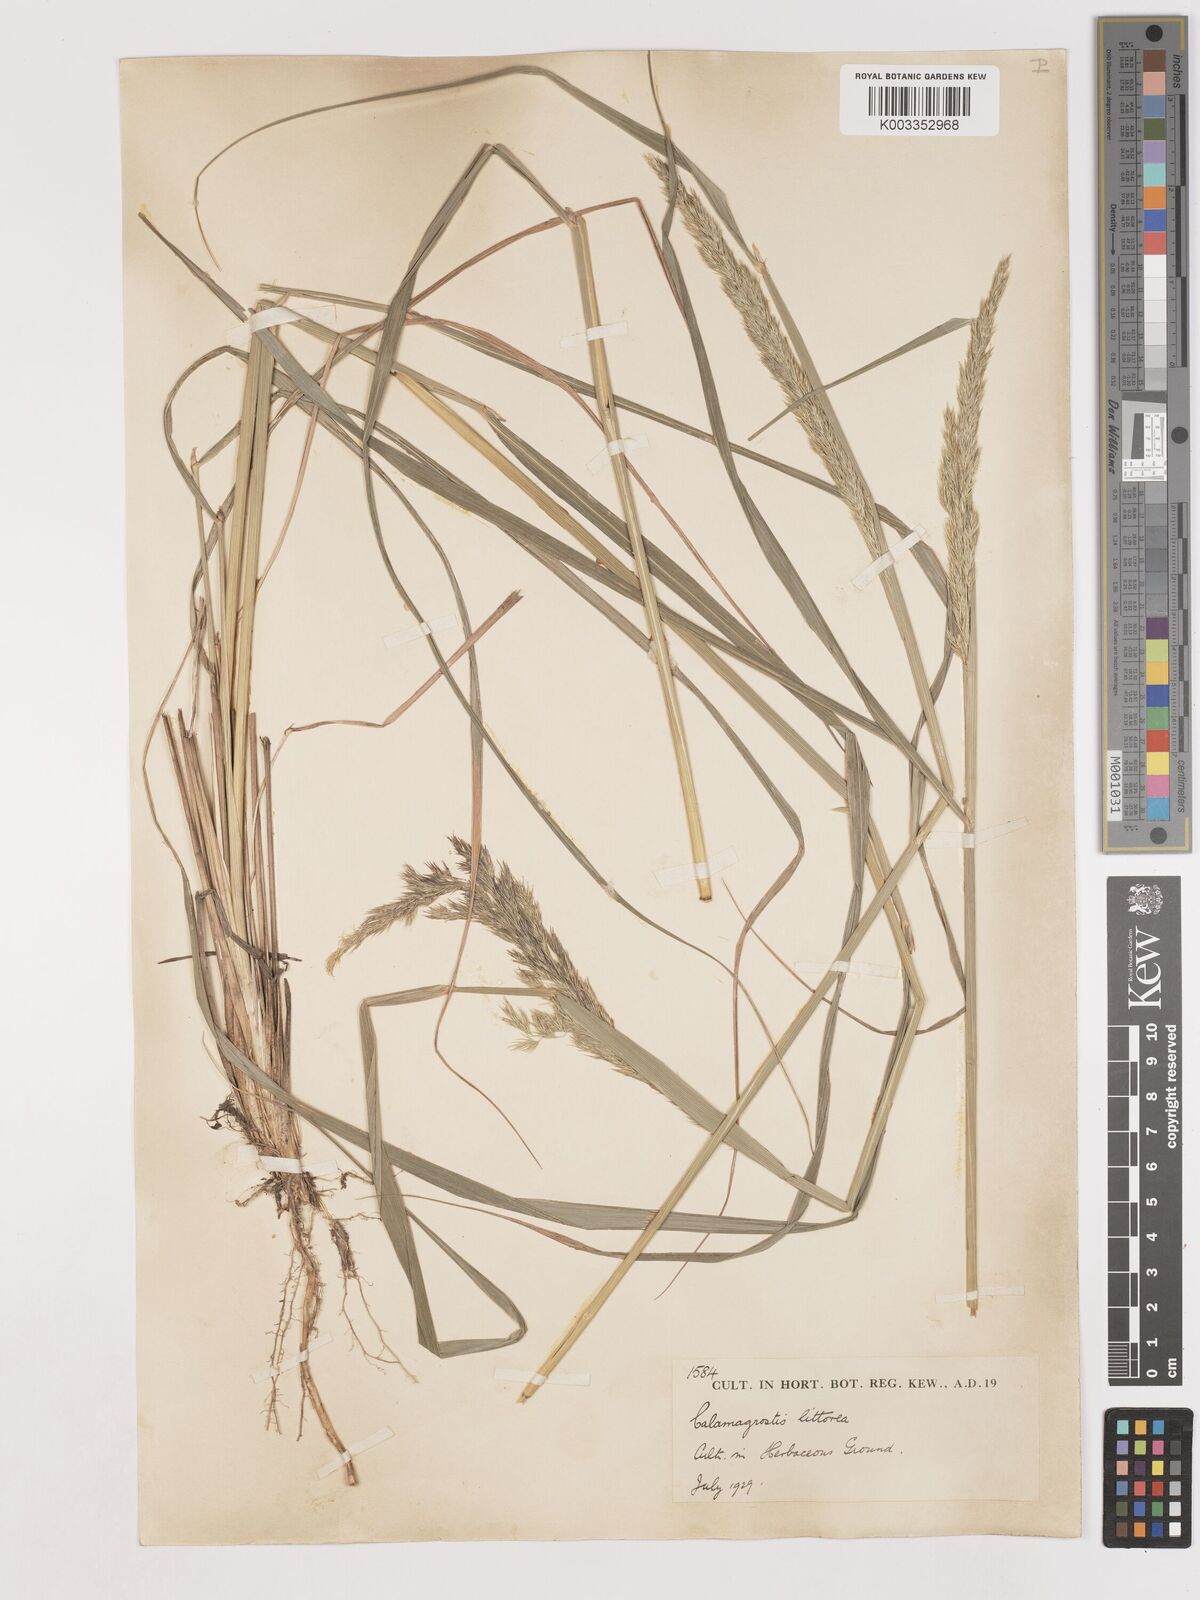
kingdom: Plantae
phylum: Tracheophyta
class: Liliopsida
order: Poales
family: Poaceae
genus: Calamagrostis
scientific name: Calamagrostis pseudophragmites
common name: Coastal small-reed
